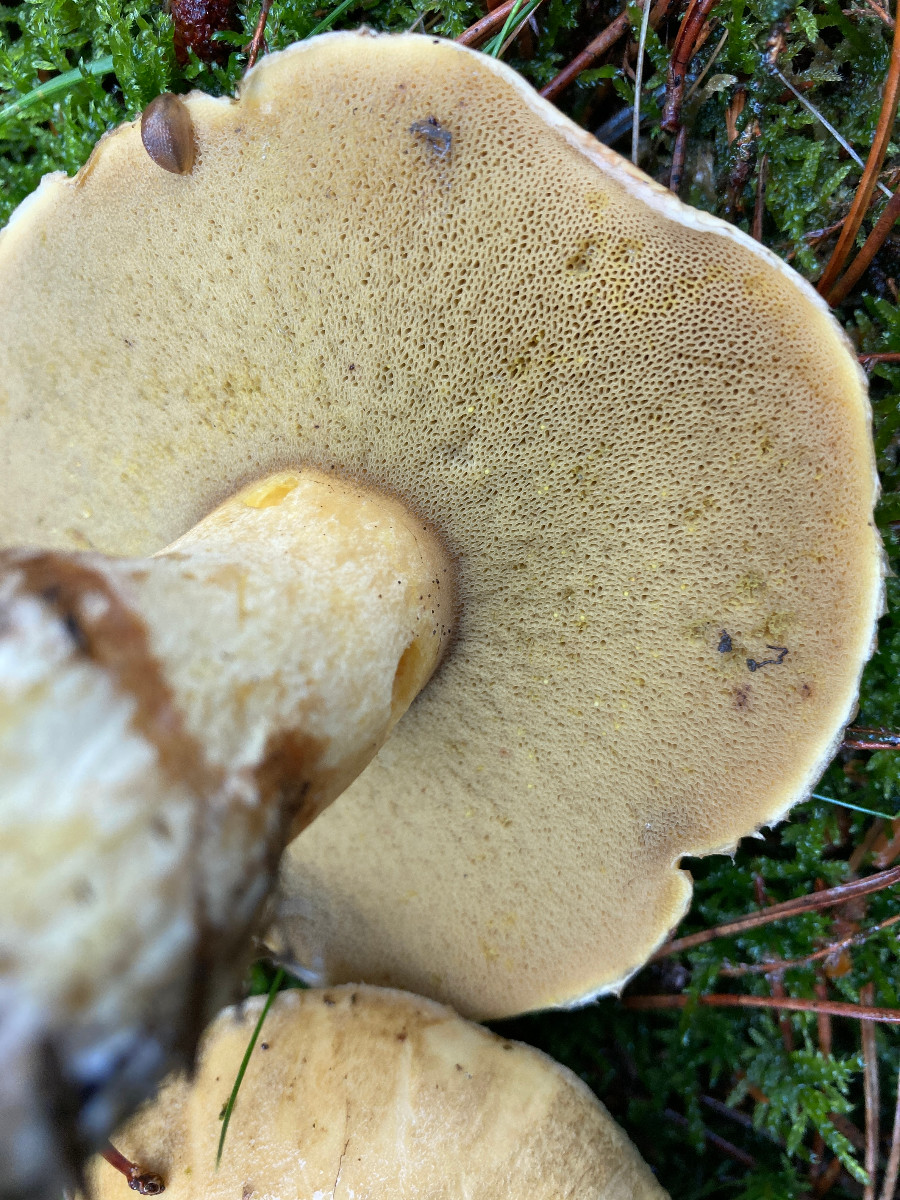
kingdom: Fungi
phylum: Basidiomycota
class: Agaricomycetes
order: Boletales
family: Suillaceae
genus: Suillus
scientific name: Suillus variegatus
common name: broget slimrørhat
